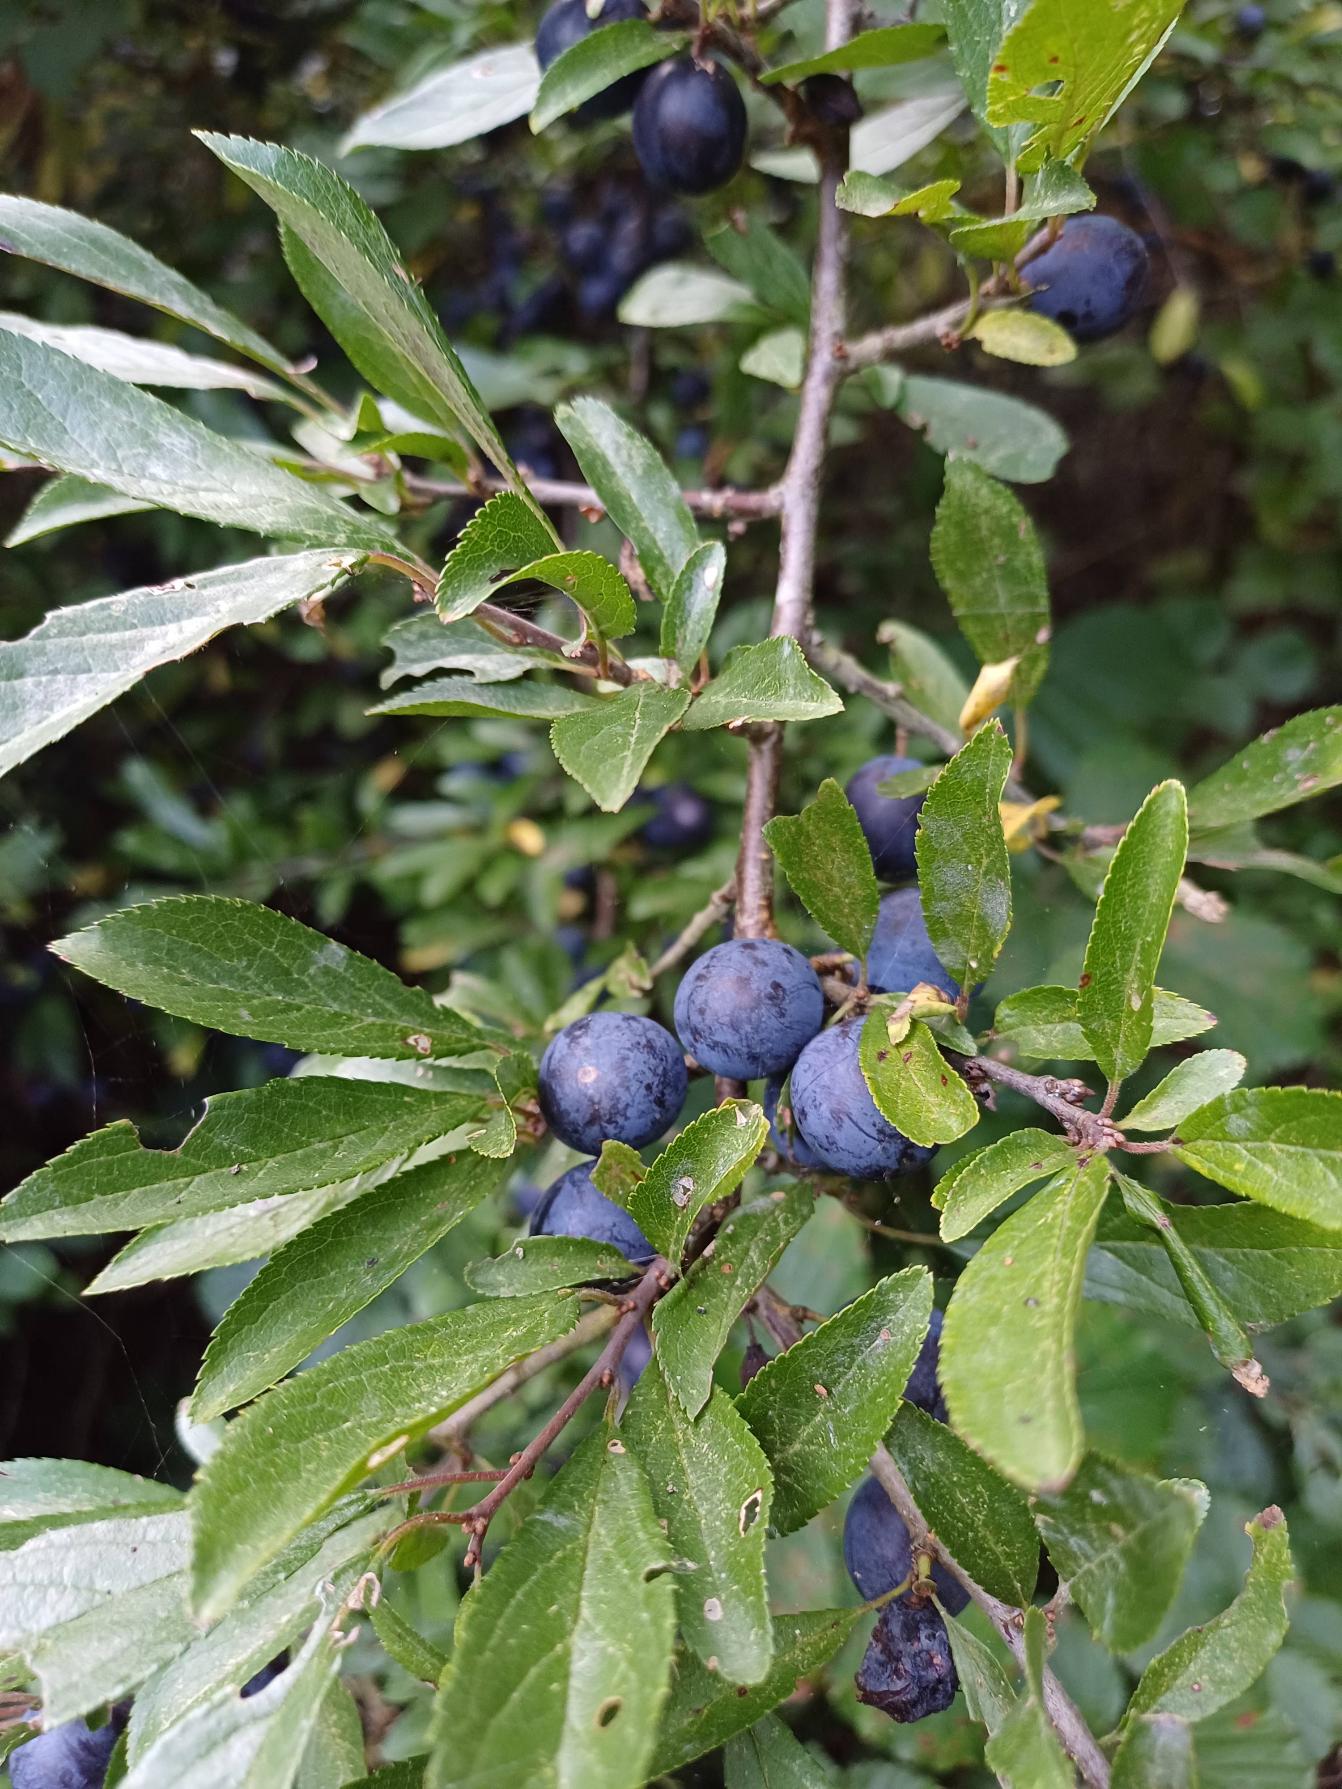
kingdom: Plantae
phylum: Tracheophyta
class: Magnoliopsida
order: Rosales
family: Rosaceae
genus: Prunus
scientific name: Prunus spinosa
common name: Slåen
